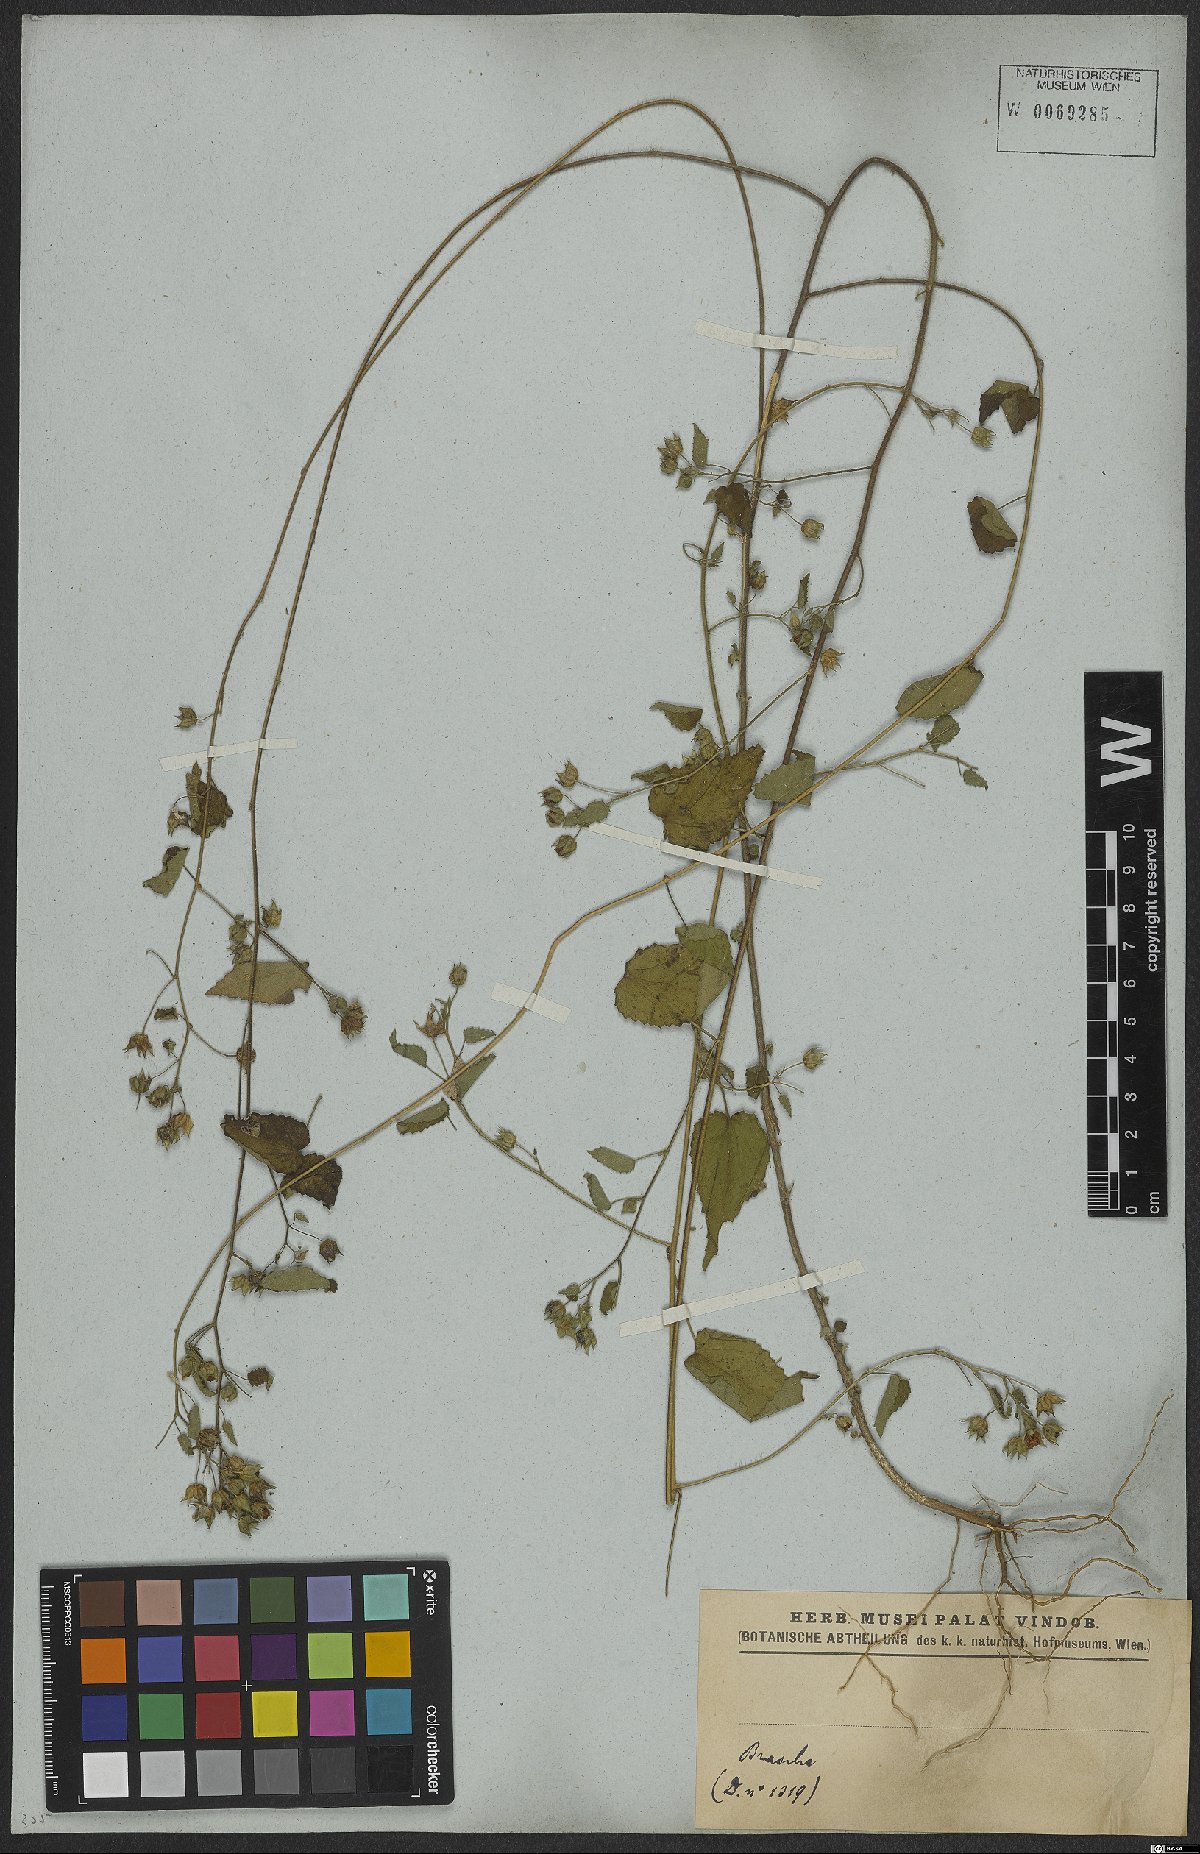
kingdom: Plantae
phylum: Tracheophyta
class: Magnoliopsida
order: Malvales
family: Malvaceae
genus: Sida
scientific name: Sida glabra
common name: Smooth fanpetals
